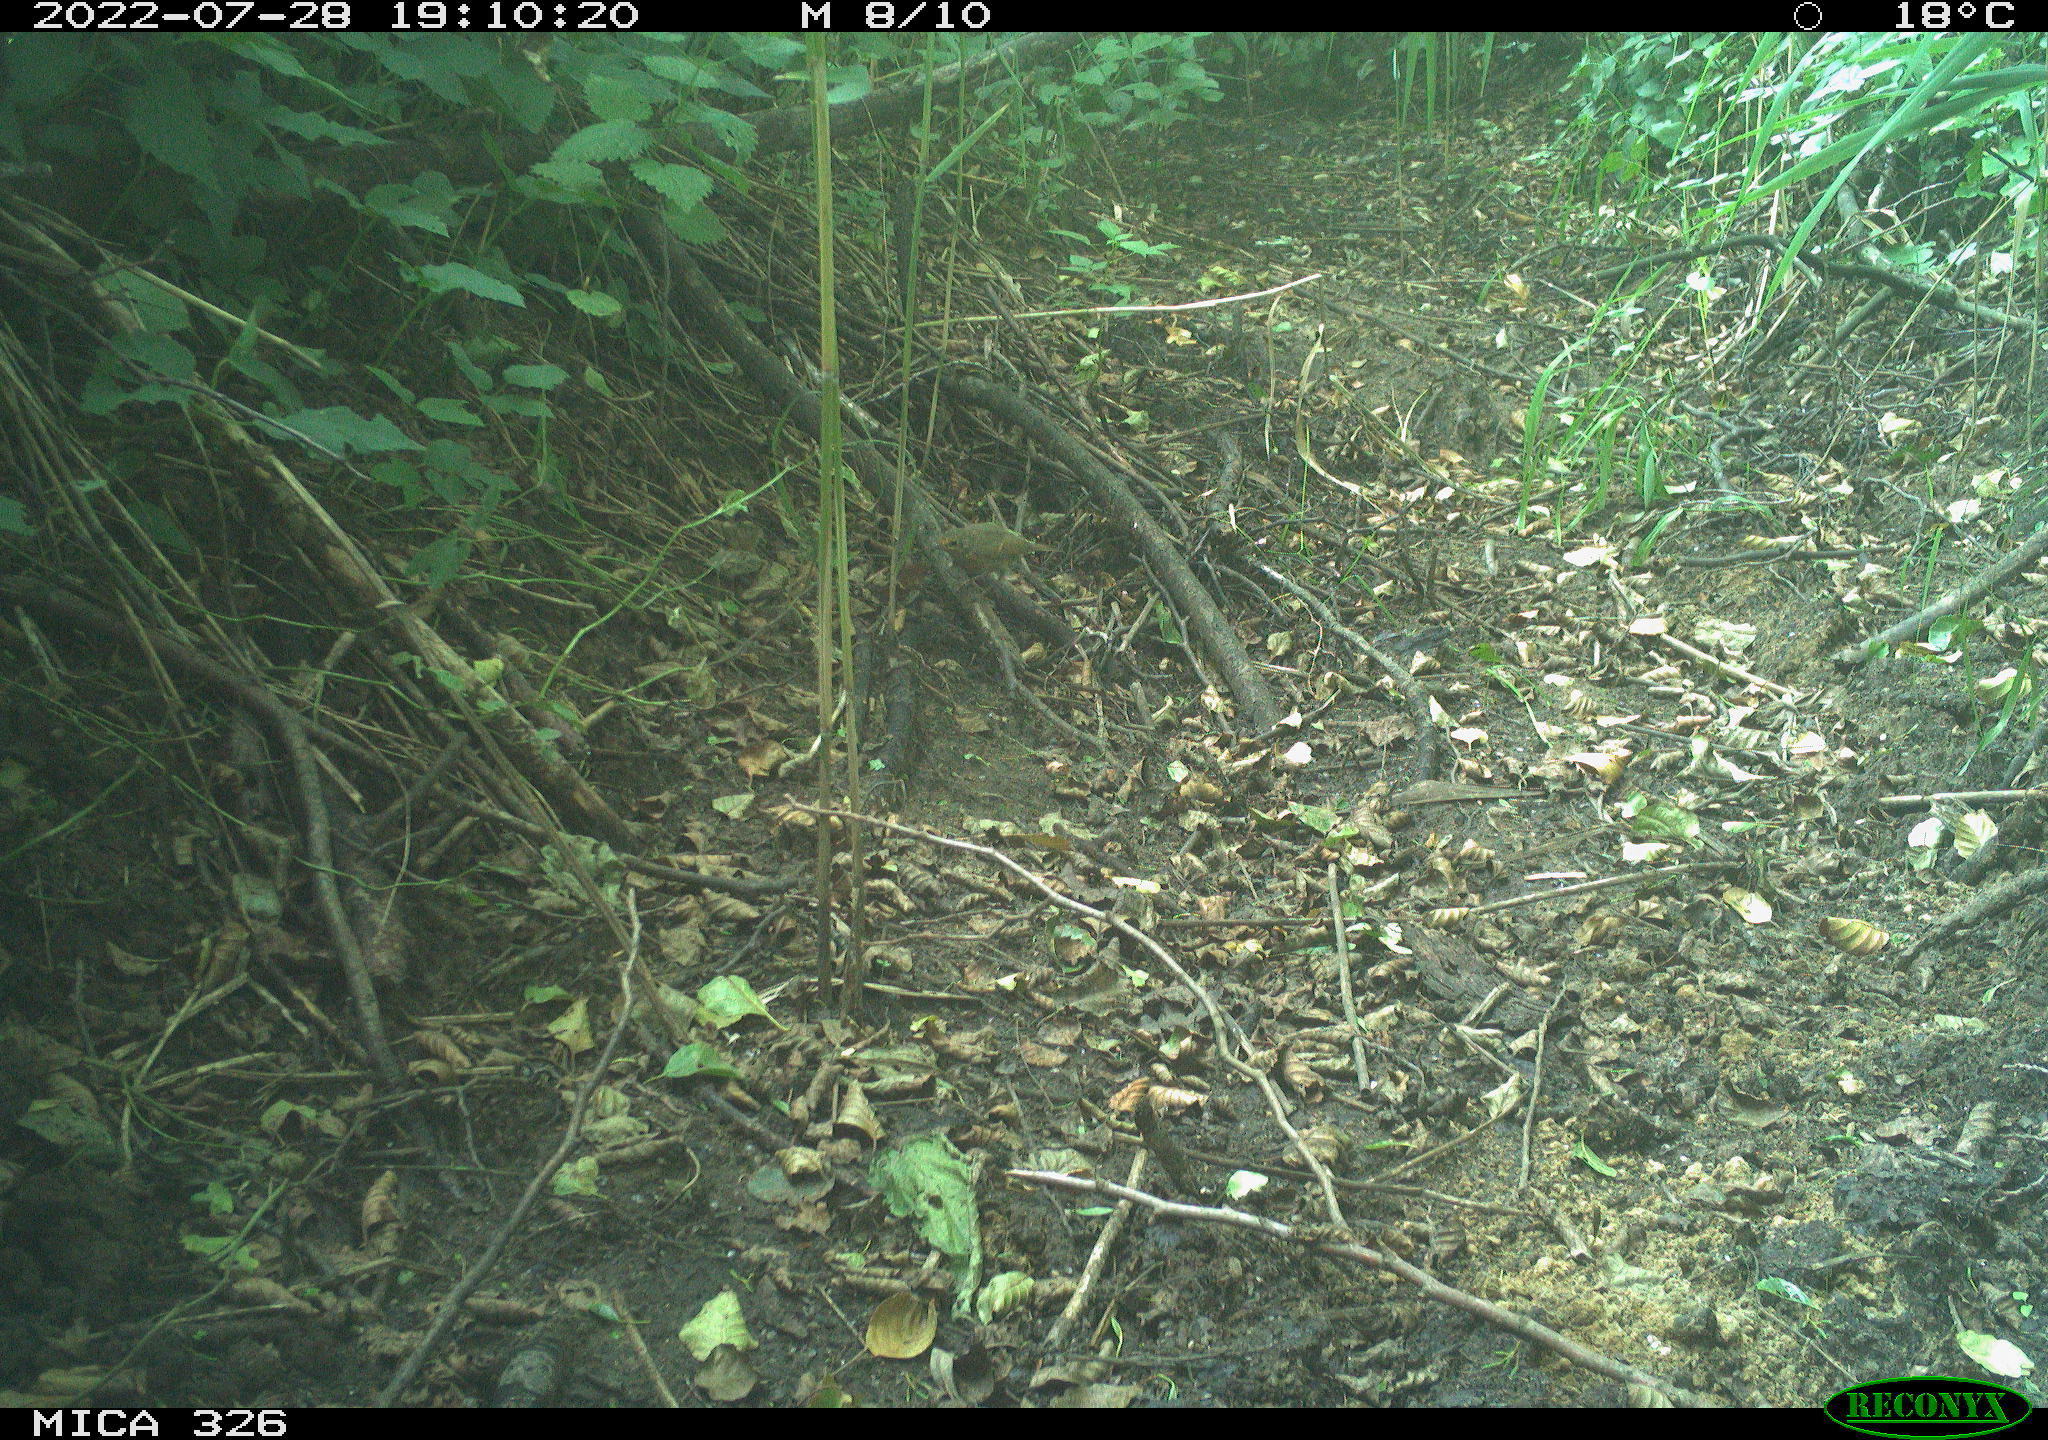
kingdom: Animalia
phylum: Chordata
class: Aves
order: Passeriformes
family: Muscicapidae
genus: Erithacus
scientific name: Erithacus rubecula
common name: European robin
